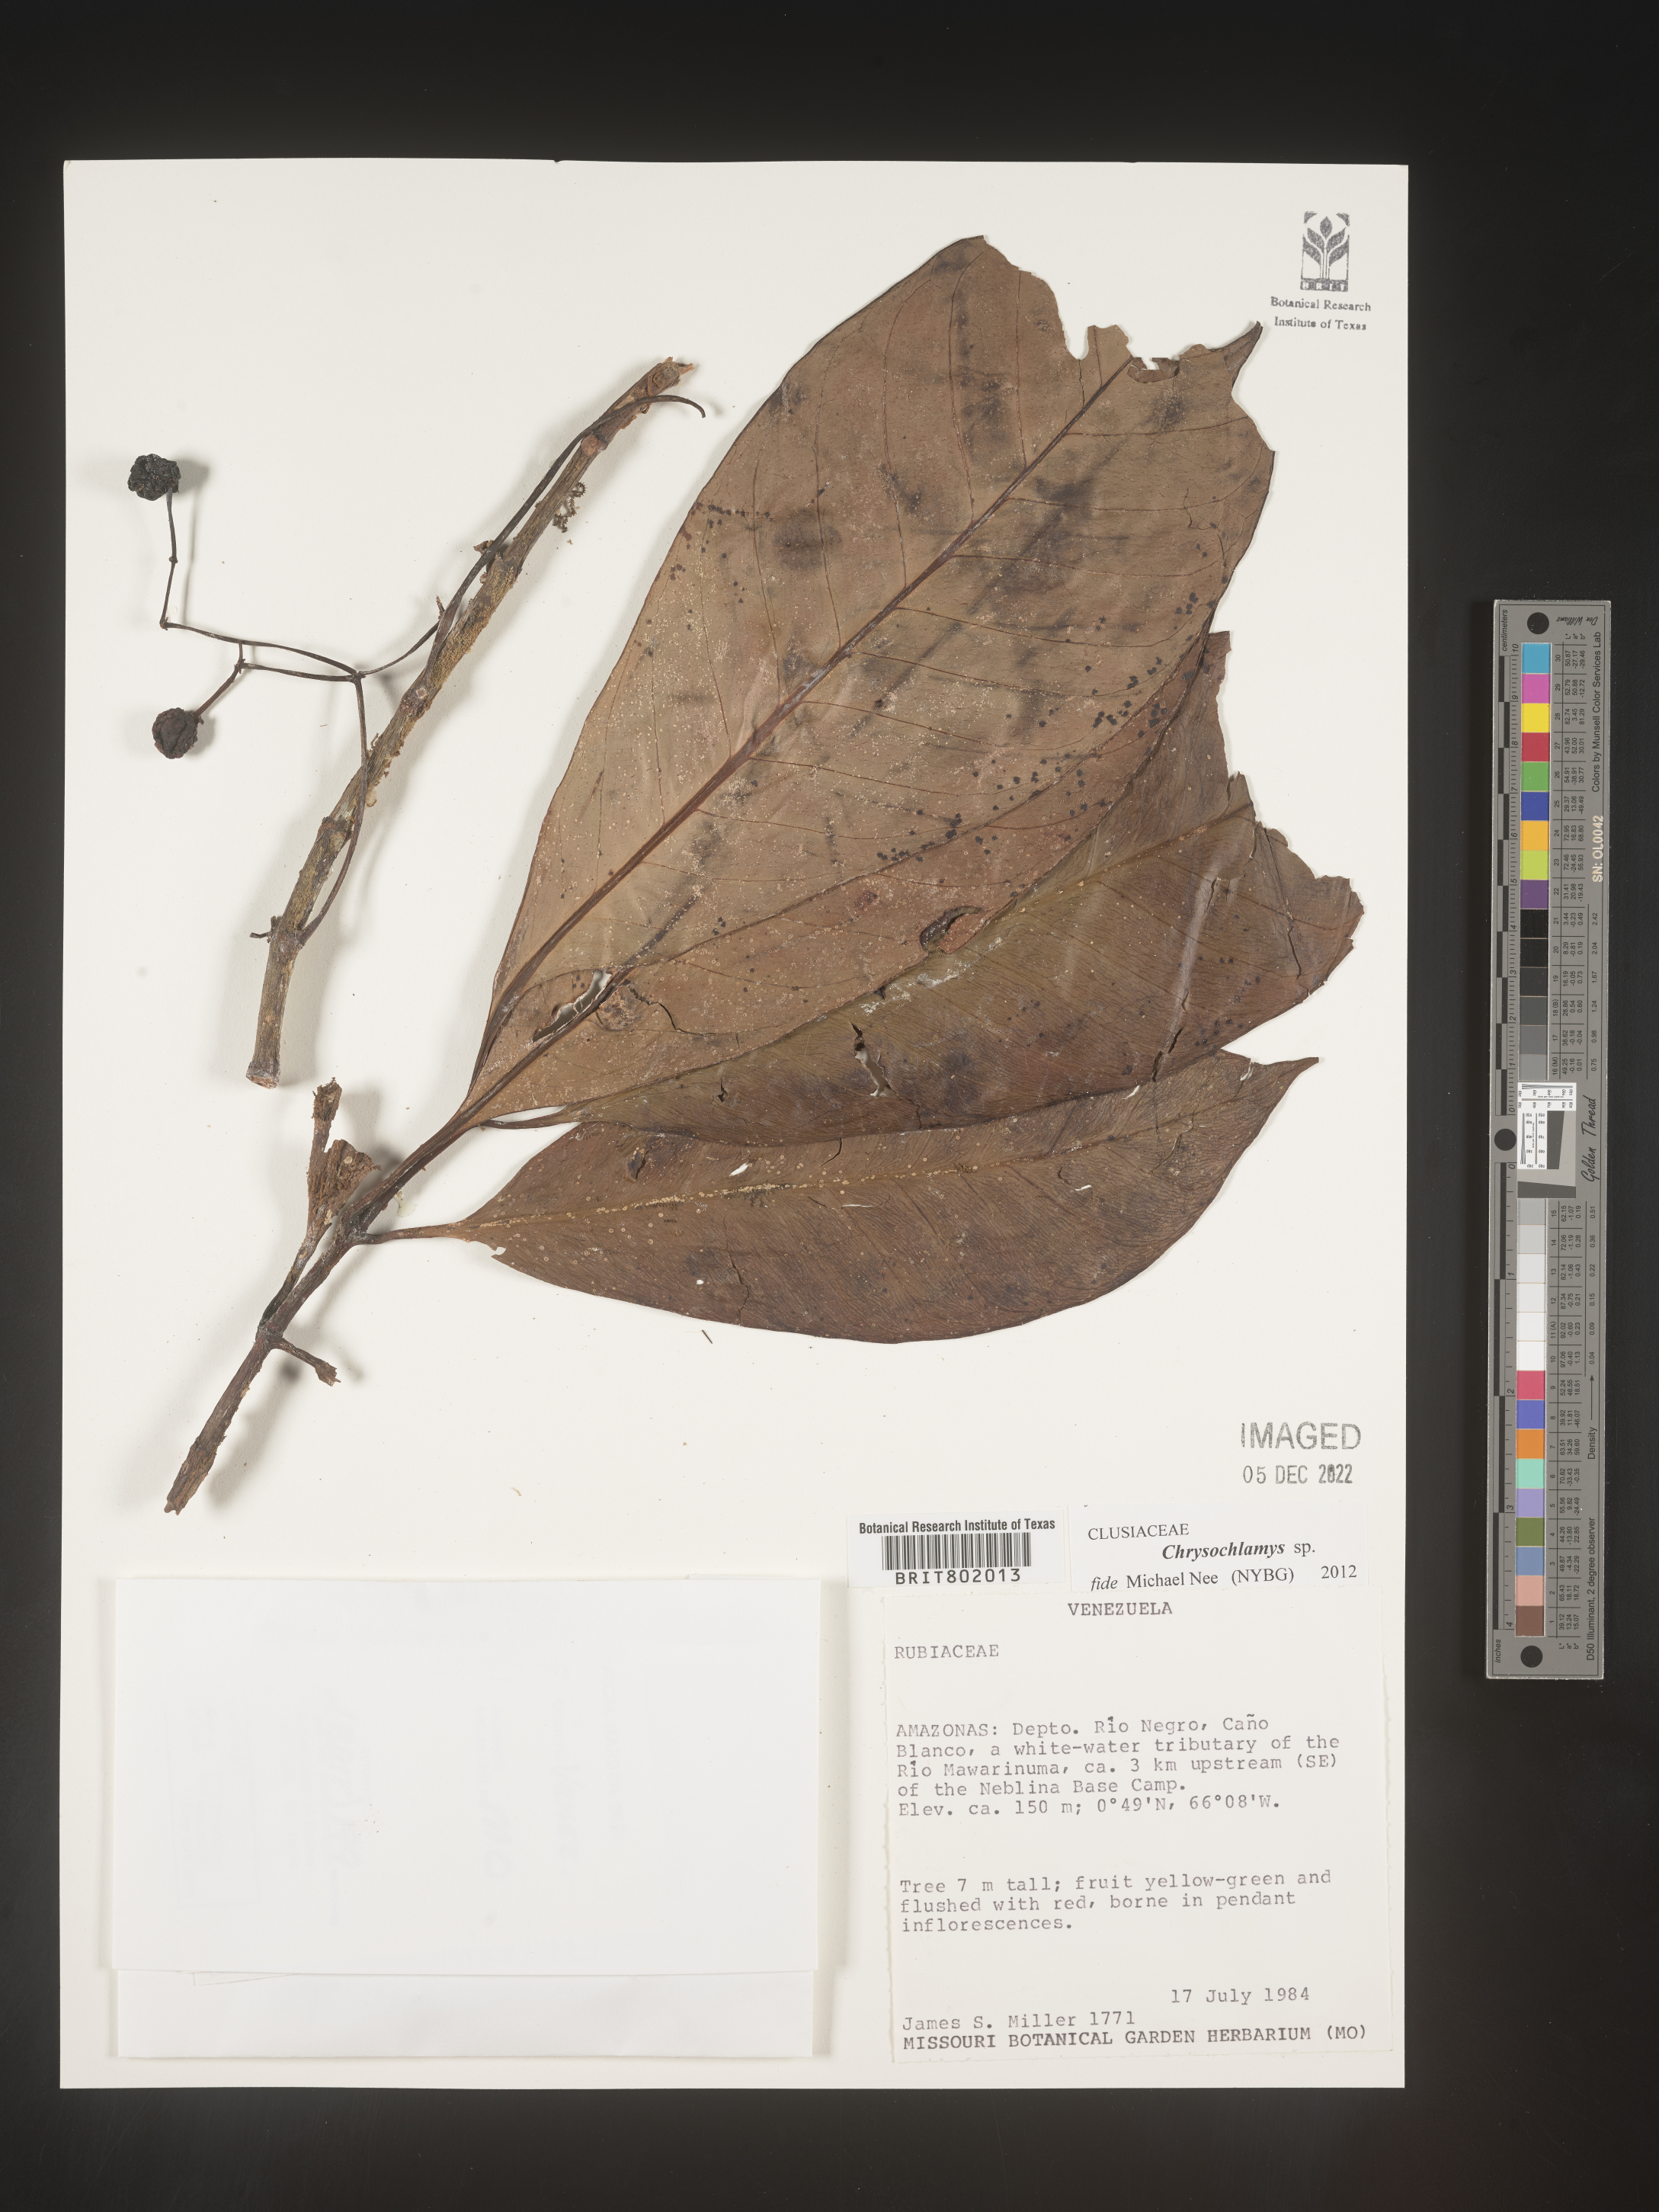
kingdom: Plantae
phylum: Tracheophyta
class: Magnoliopsida
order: Malpighiales
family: Clusiaceae
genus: Chrysochlamys
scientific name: Chrysochlamys
